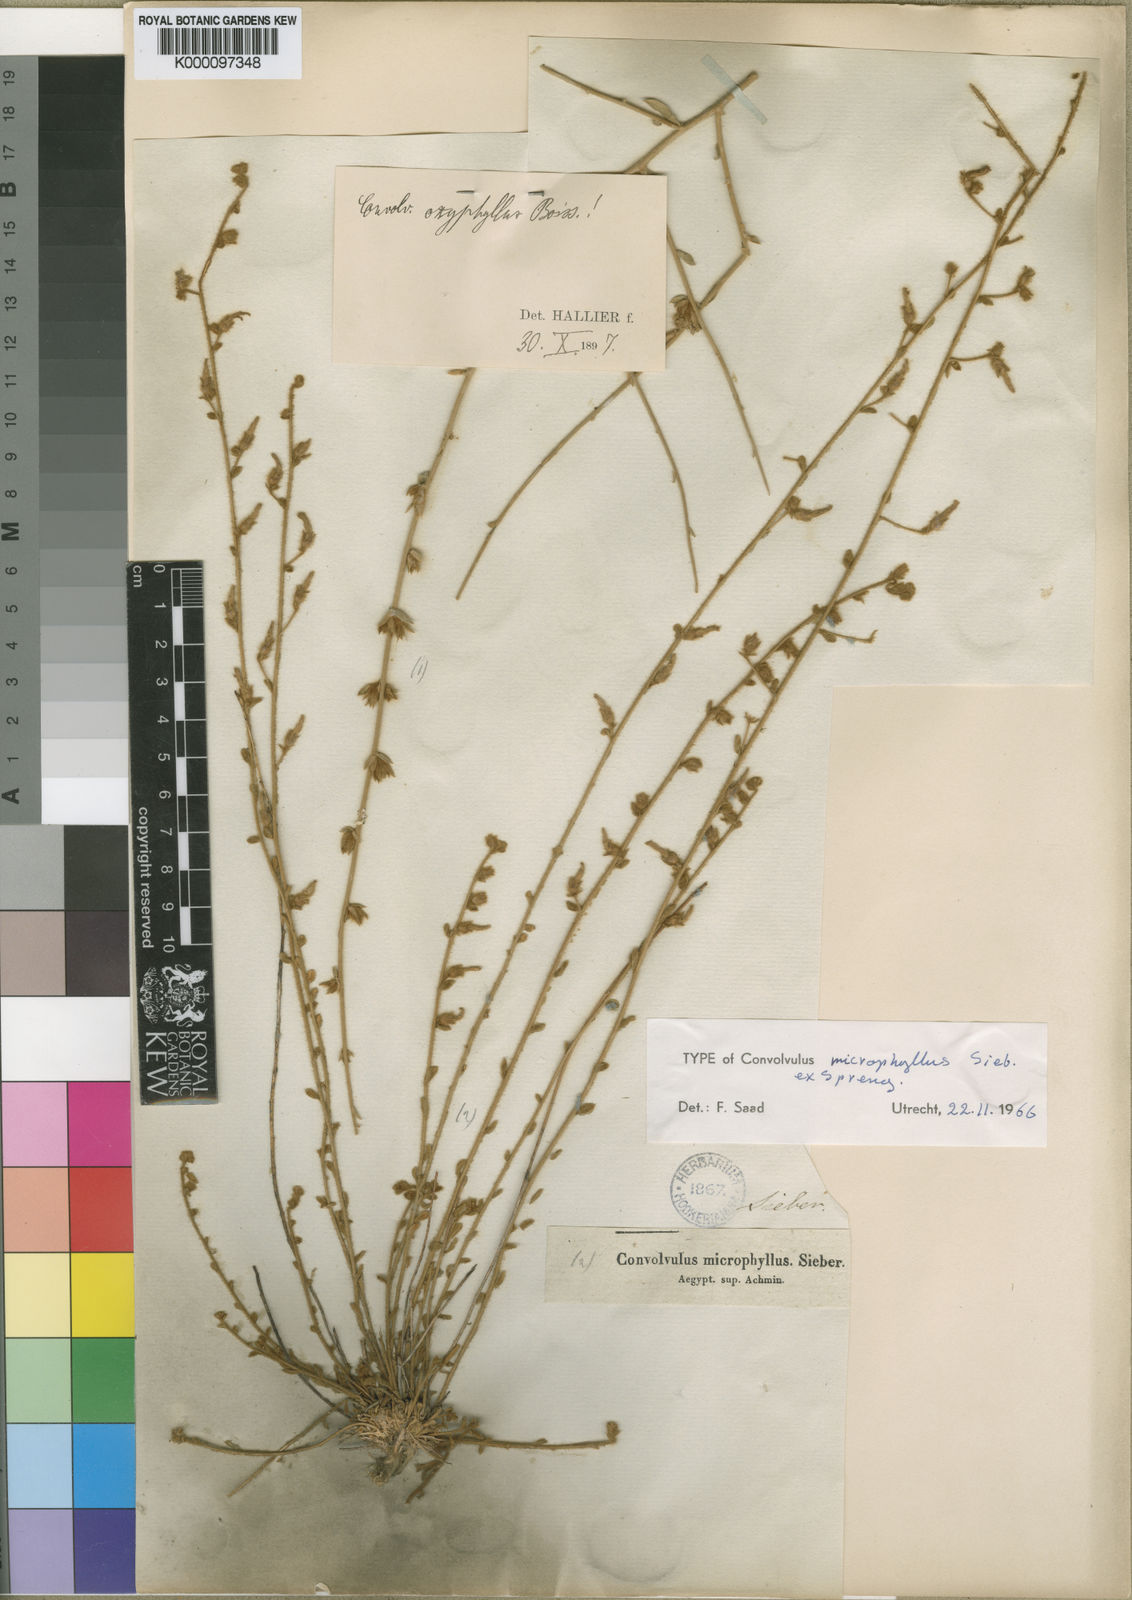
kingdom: Plantae
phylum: Tracheophyta
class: Magnoliopsida
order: Solanales
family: Convolvulaceae
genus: Convolvulus
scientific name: Convolvulus prostratus
